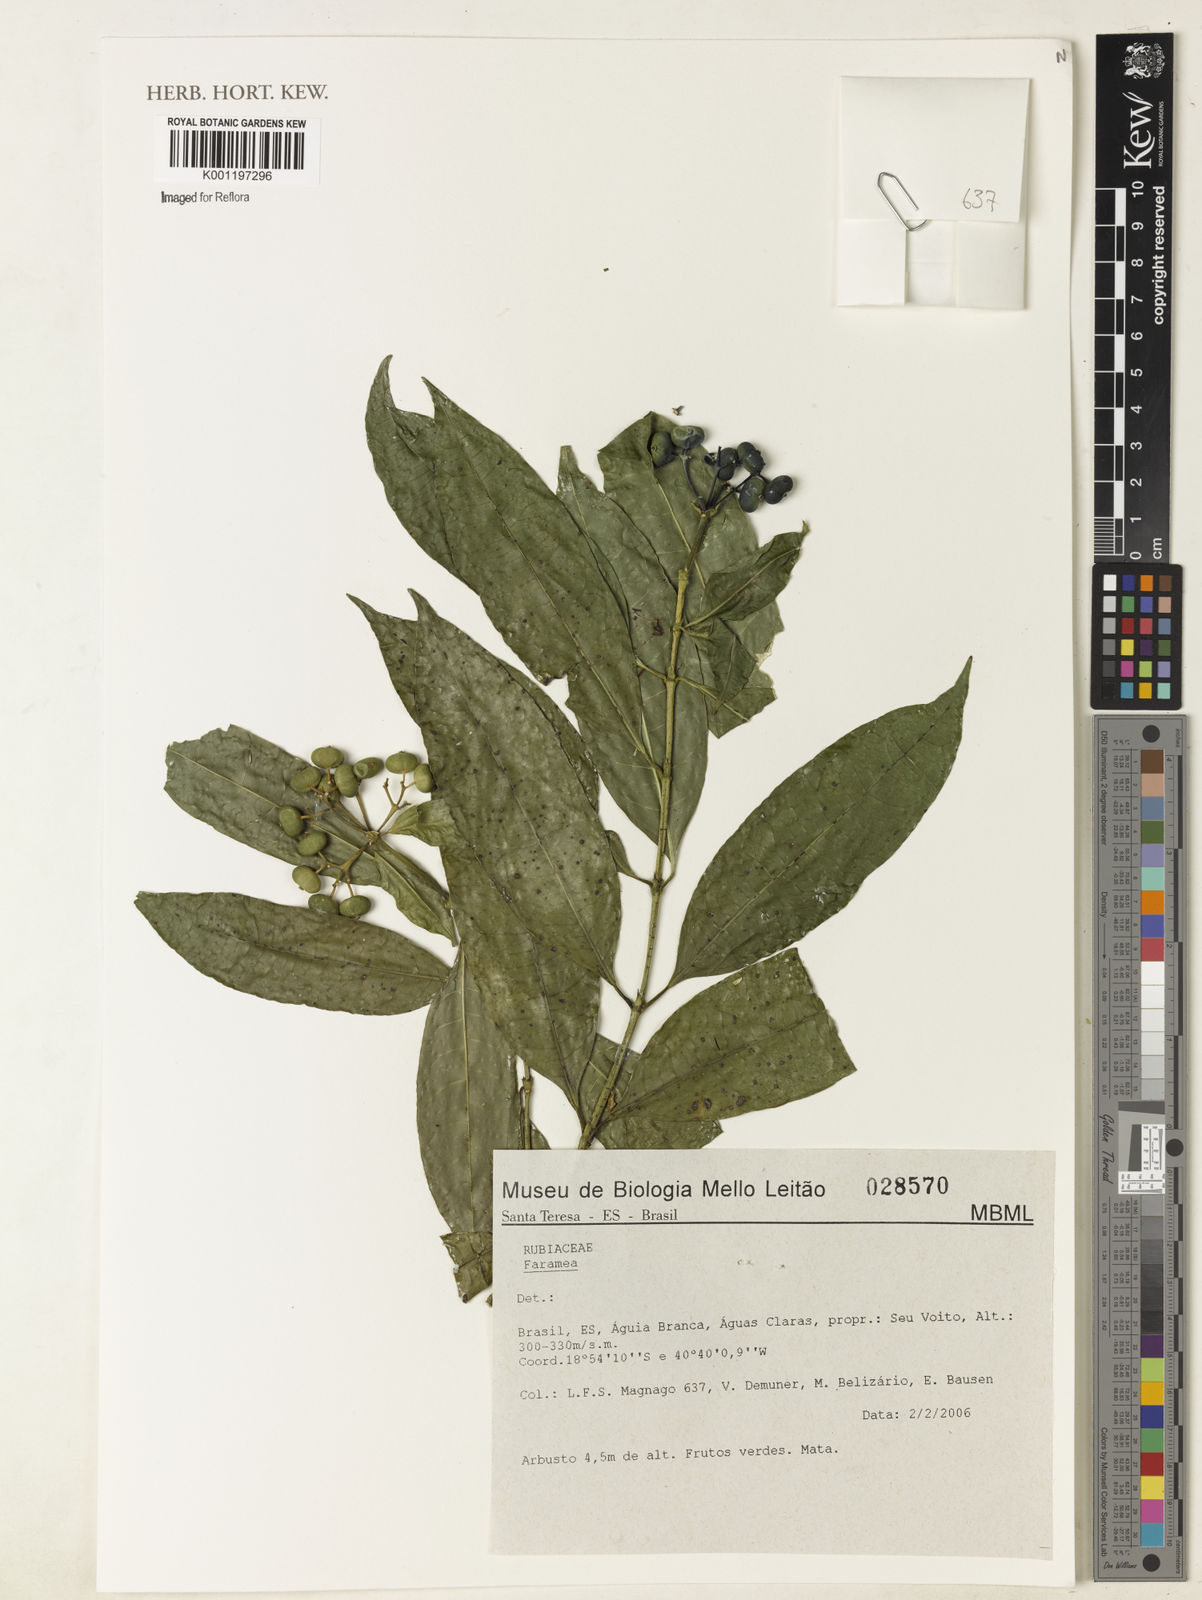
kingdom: Plantae
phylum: Tracheophyta
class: Magnoliopsida
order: Gentianales
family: Rubiaceae
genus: Faramea
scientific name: Faramea
